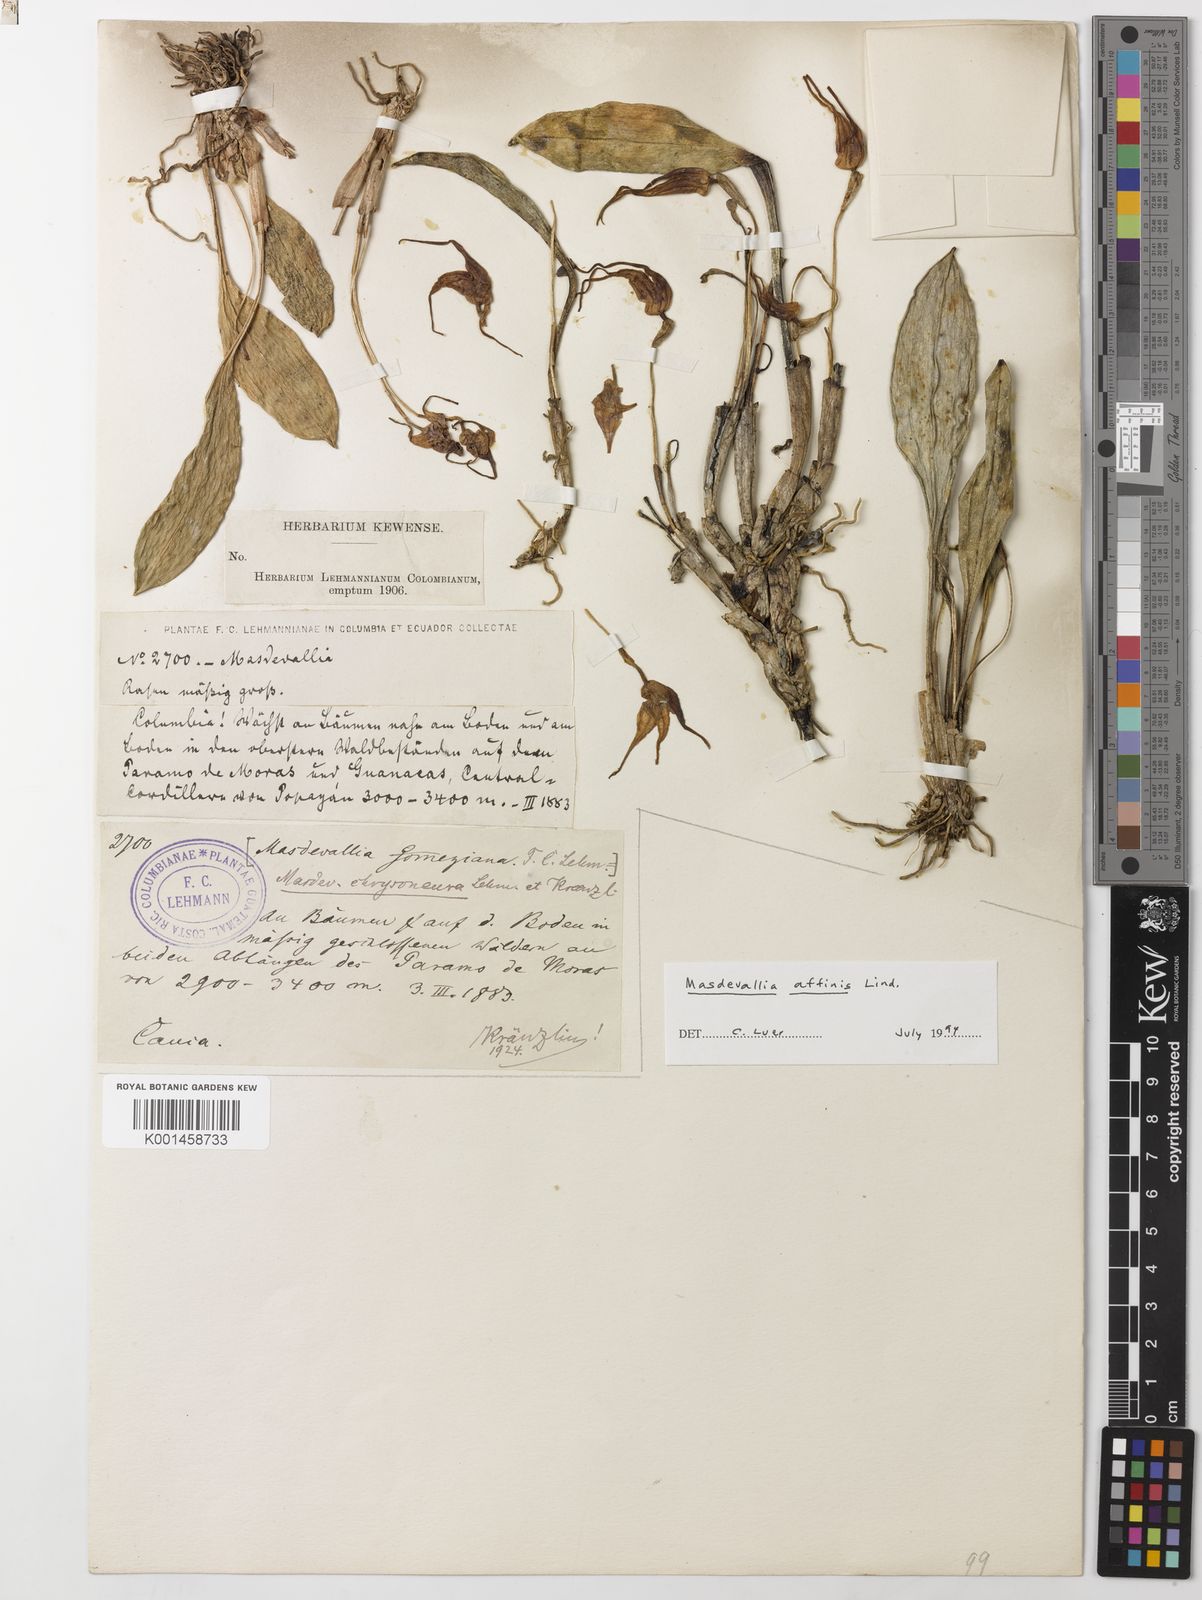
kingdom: Plantae
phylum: Tracheophyta
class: Liliopsida
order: Asparagales
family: Orchidaceae
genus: Masdevallia
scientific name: Masdevallia laevis
